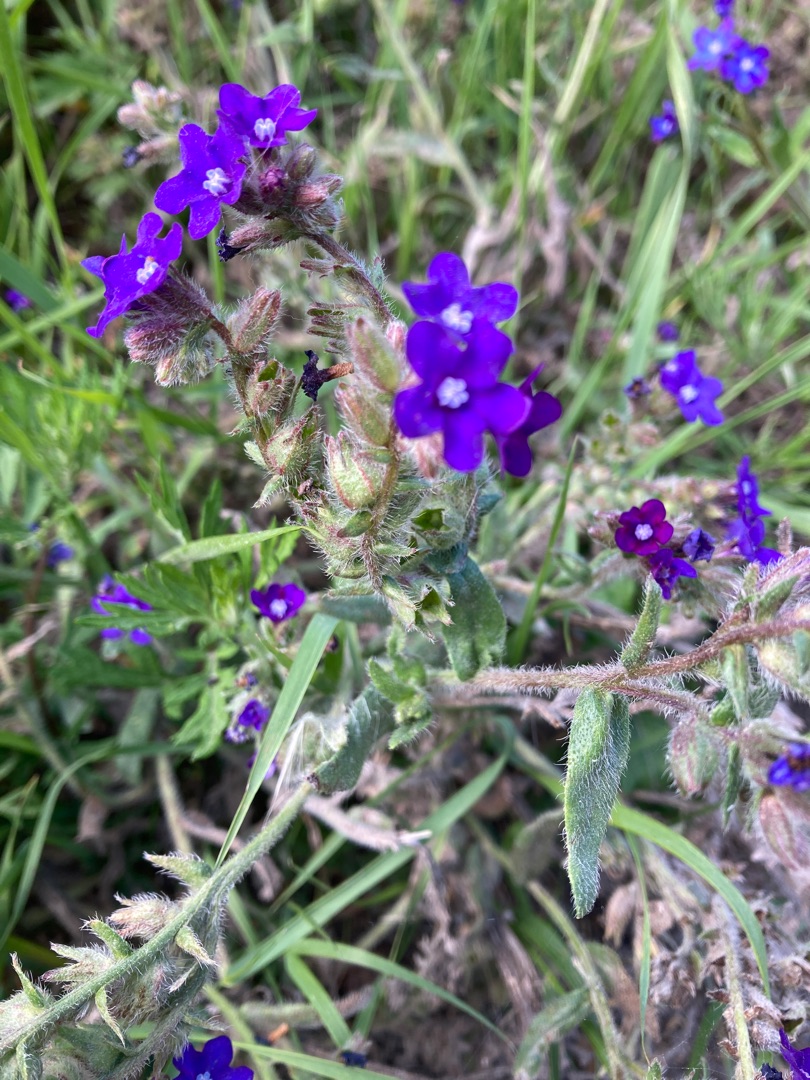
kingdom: Plantae
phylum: Tracheophyta
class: Magnoliopsida
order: Boraginales
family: Boraginaceae
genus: Anchusa
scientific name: Anchusa officinalis
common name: Læge-oksetunge
